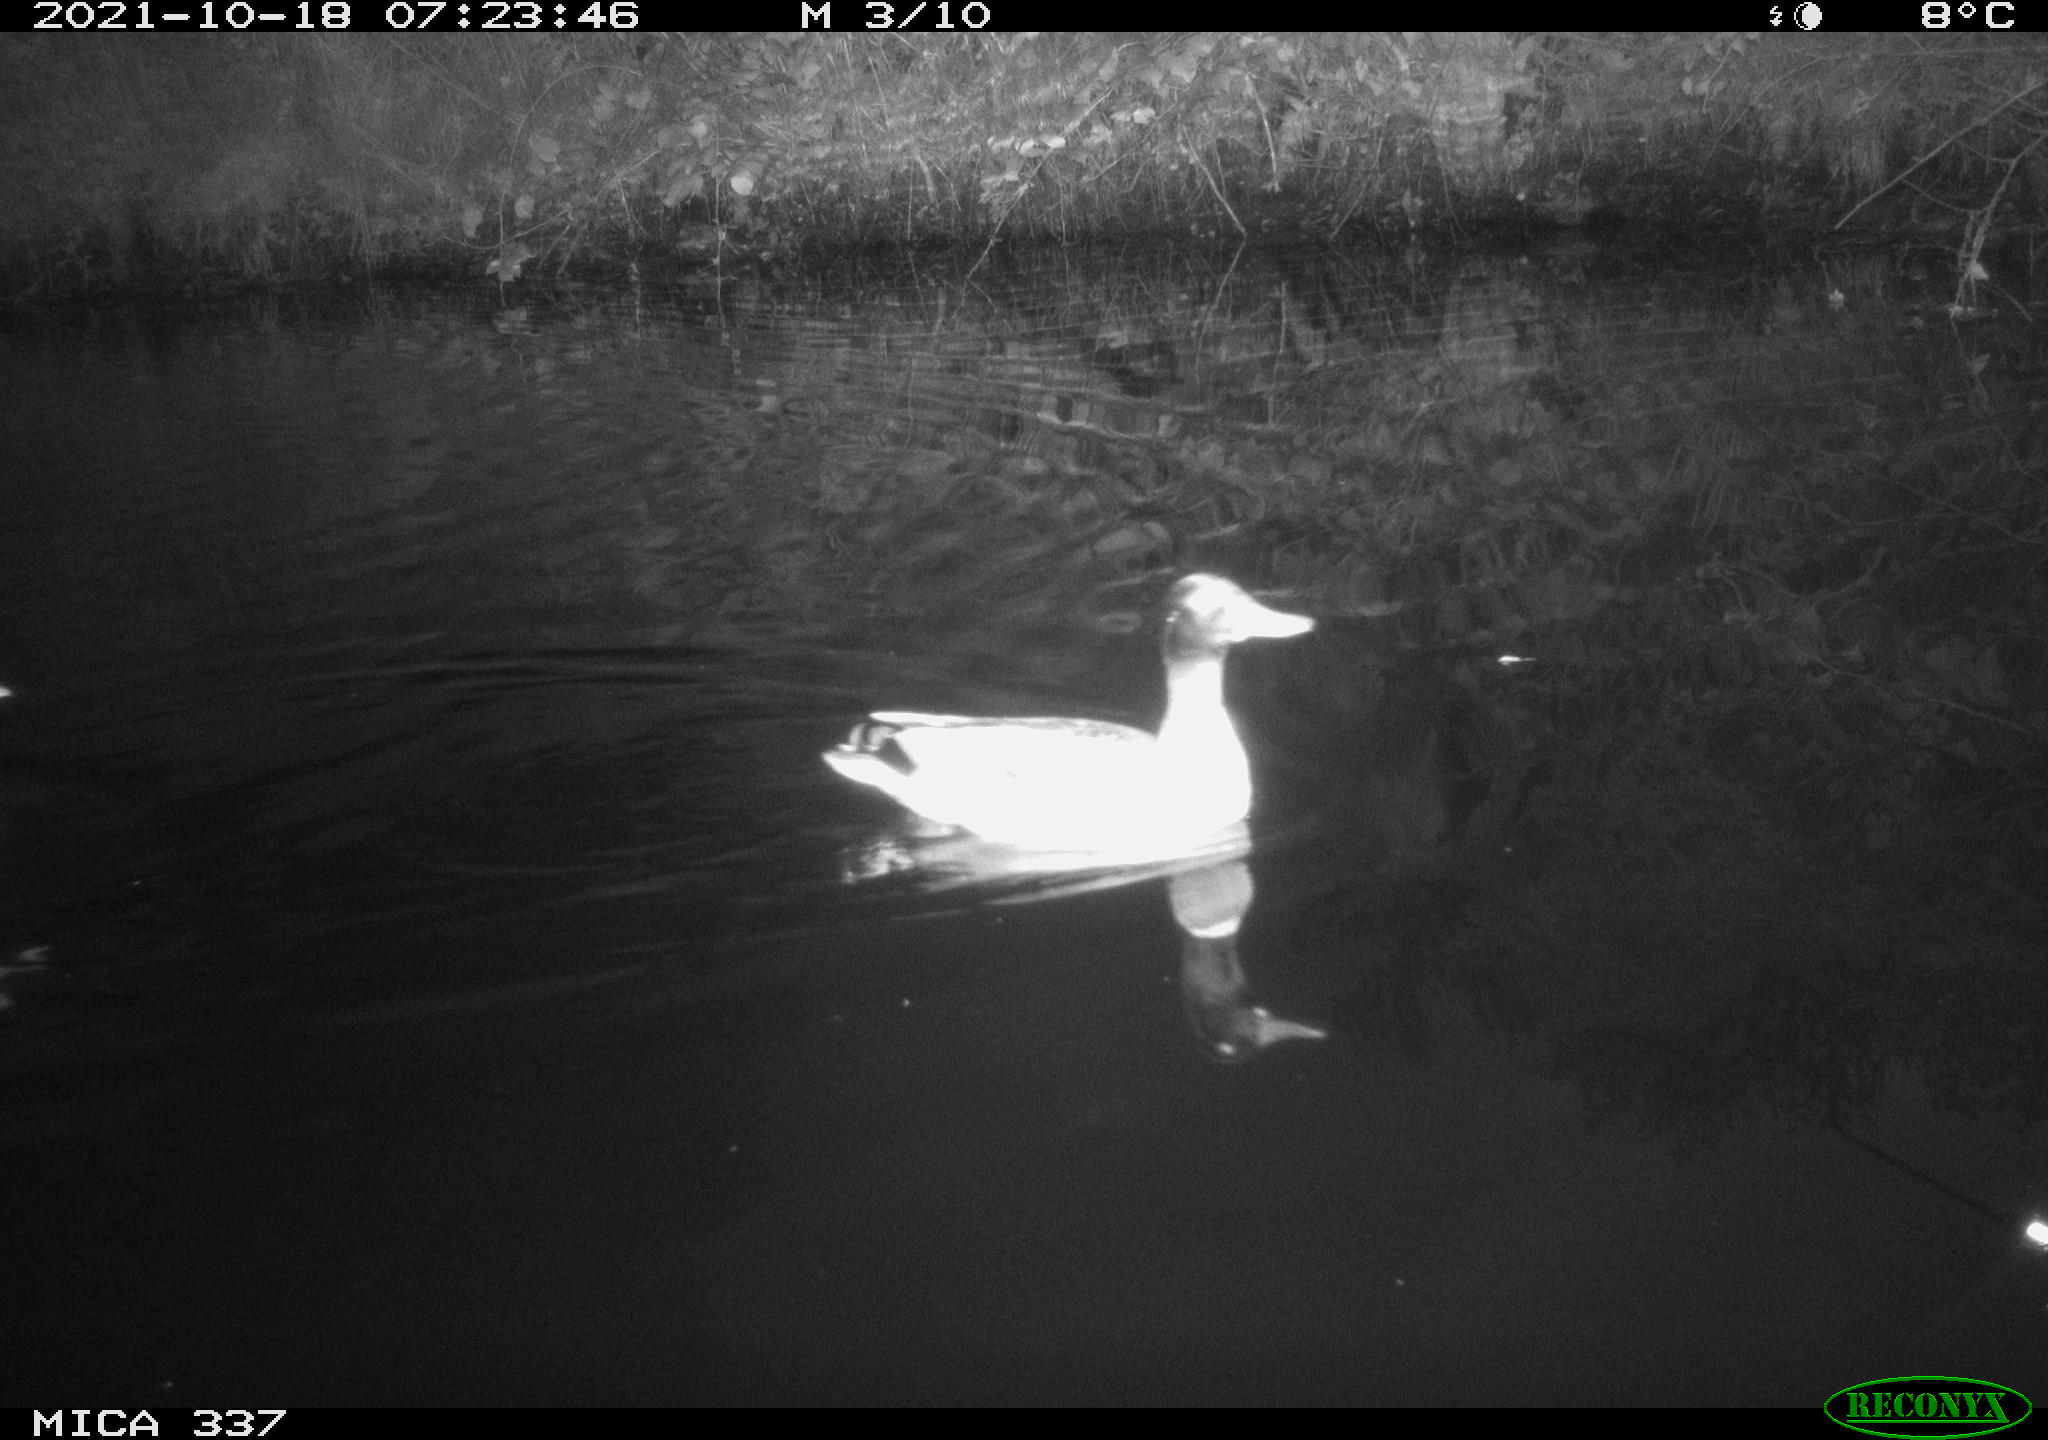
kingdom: Animalia
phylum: Chordata
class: Aves
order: Anseriformes
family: Anatidae
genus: Anas
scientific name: Anas platyrhynchos
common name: Mallard
